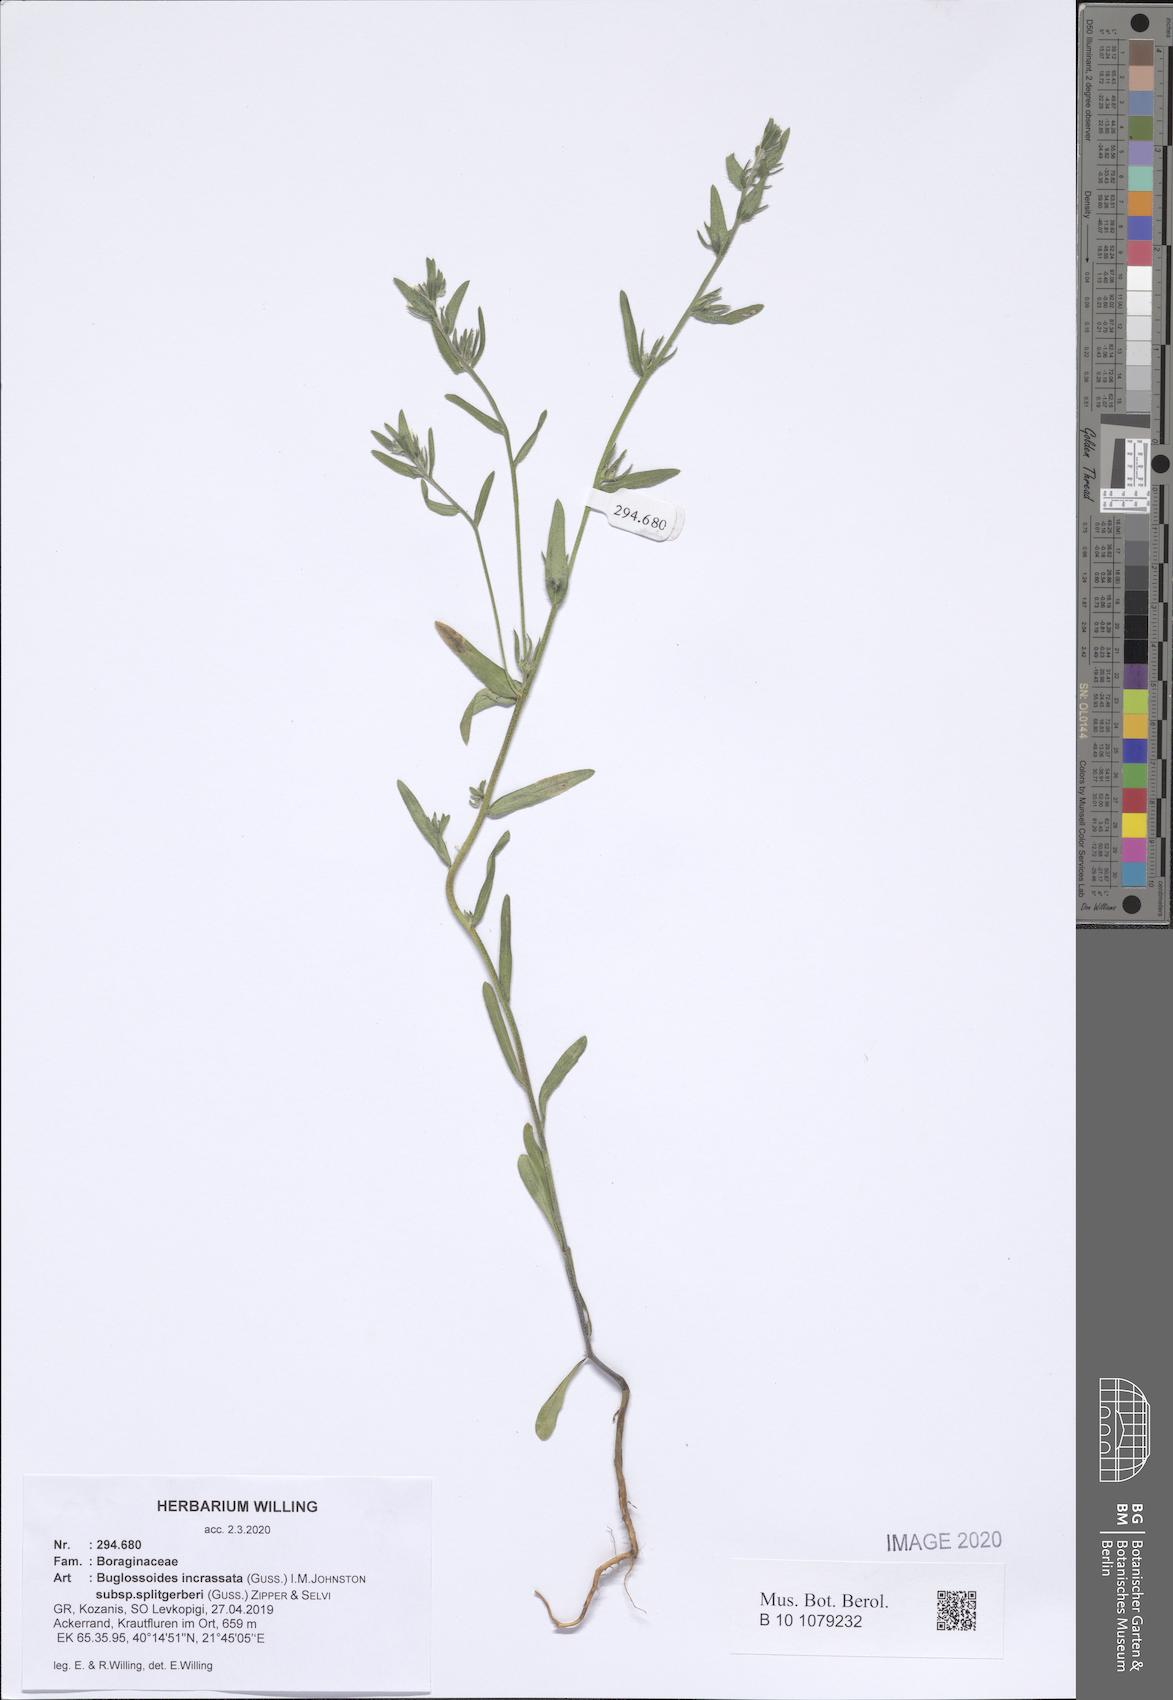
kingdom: Plantae
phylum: Tracheophyta
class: Magnoliopsida
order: Boraginales
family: Boraginaceae
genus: Buglossoides
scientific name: Buglossoides incrassata
